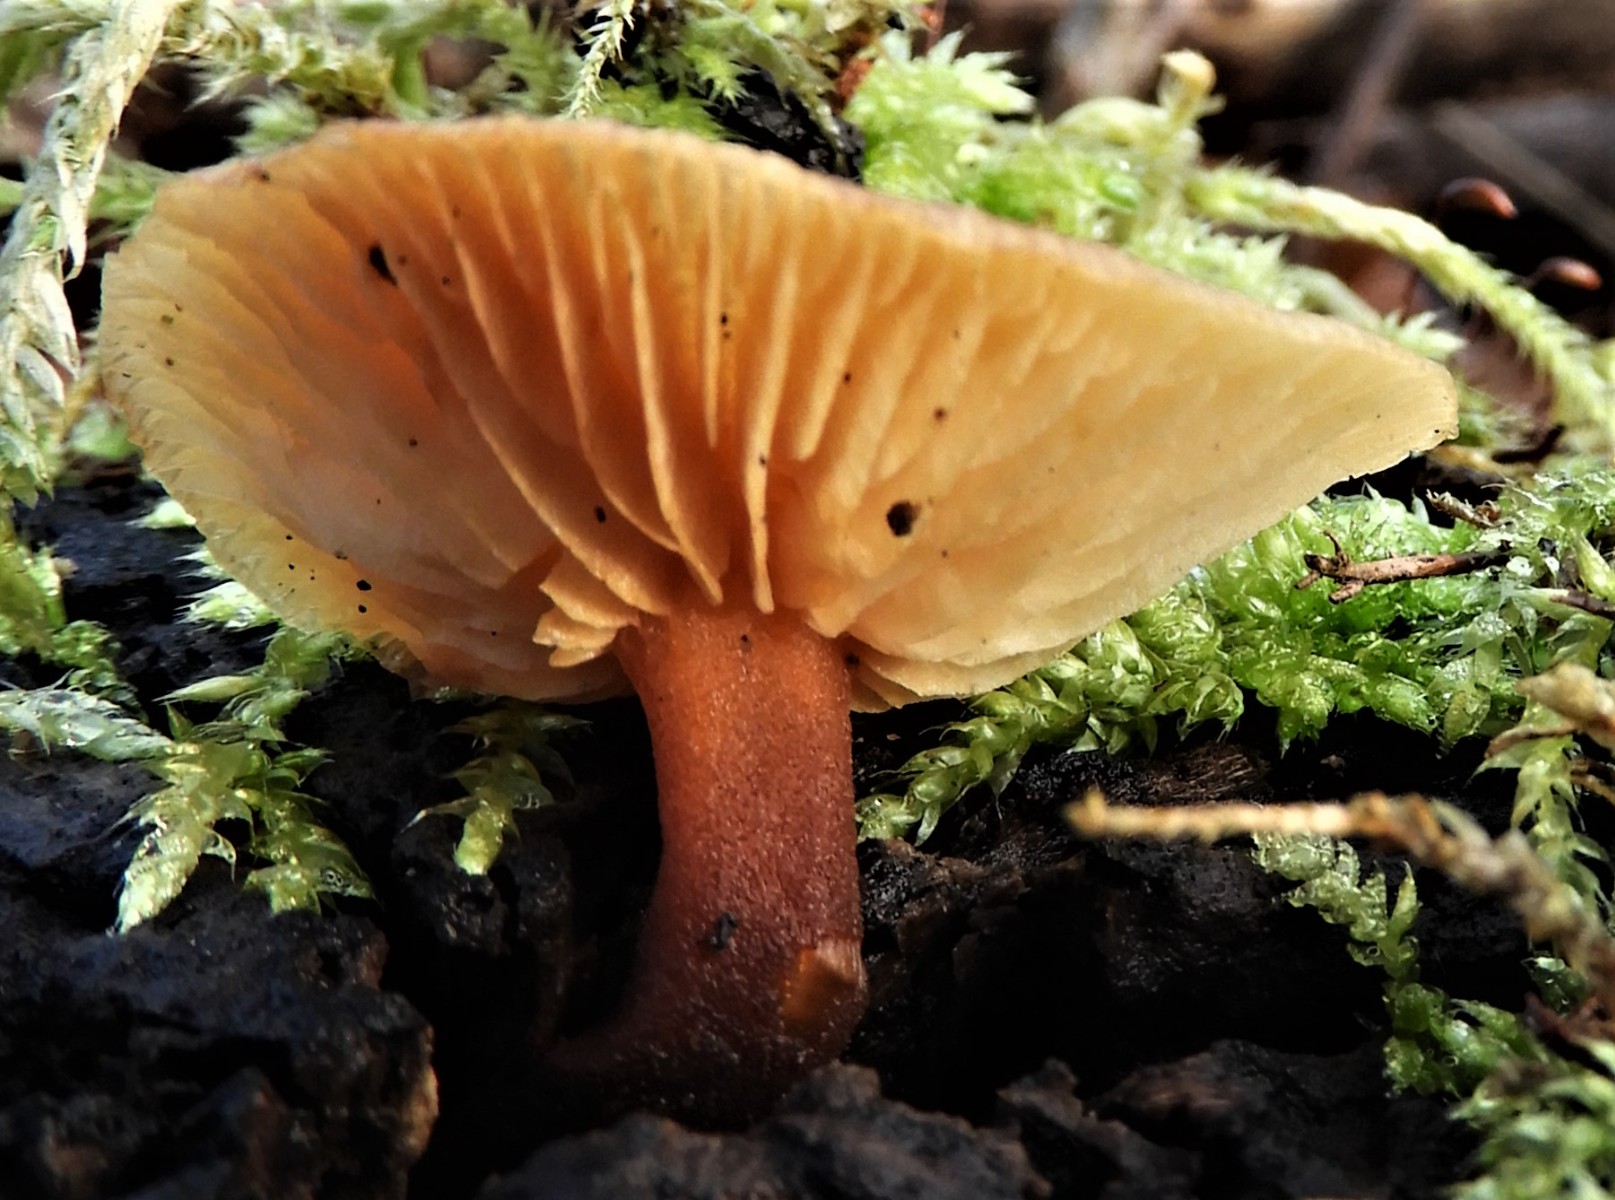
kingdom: Fungi
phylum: Basidiomycota
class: Agaricomycetes
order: Agaricales
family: Tubariaceae
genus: Tubaria
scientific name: Tubaria furfuracea
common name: kliddet fnughat
